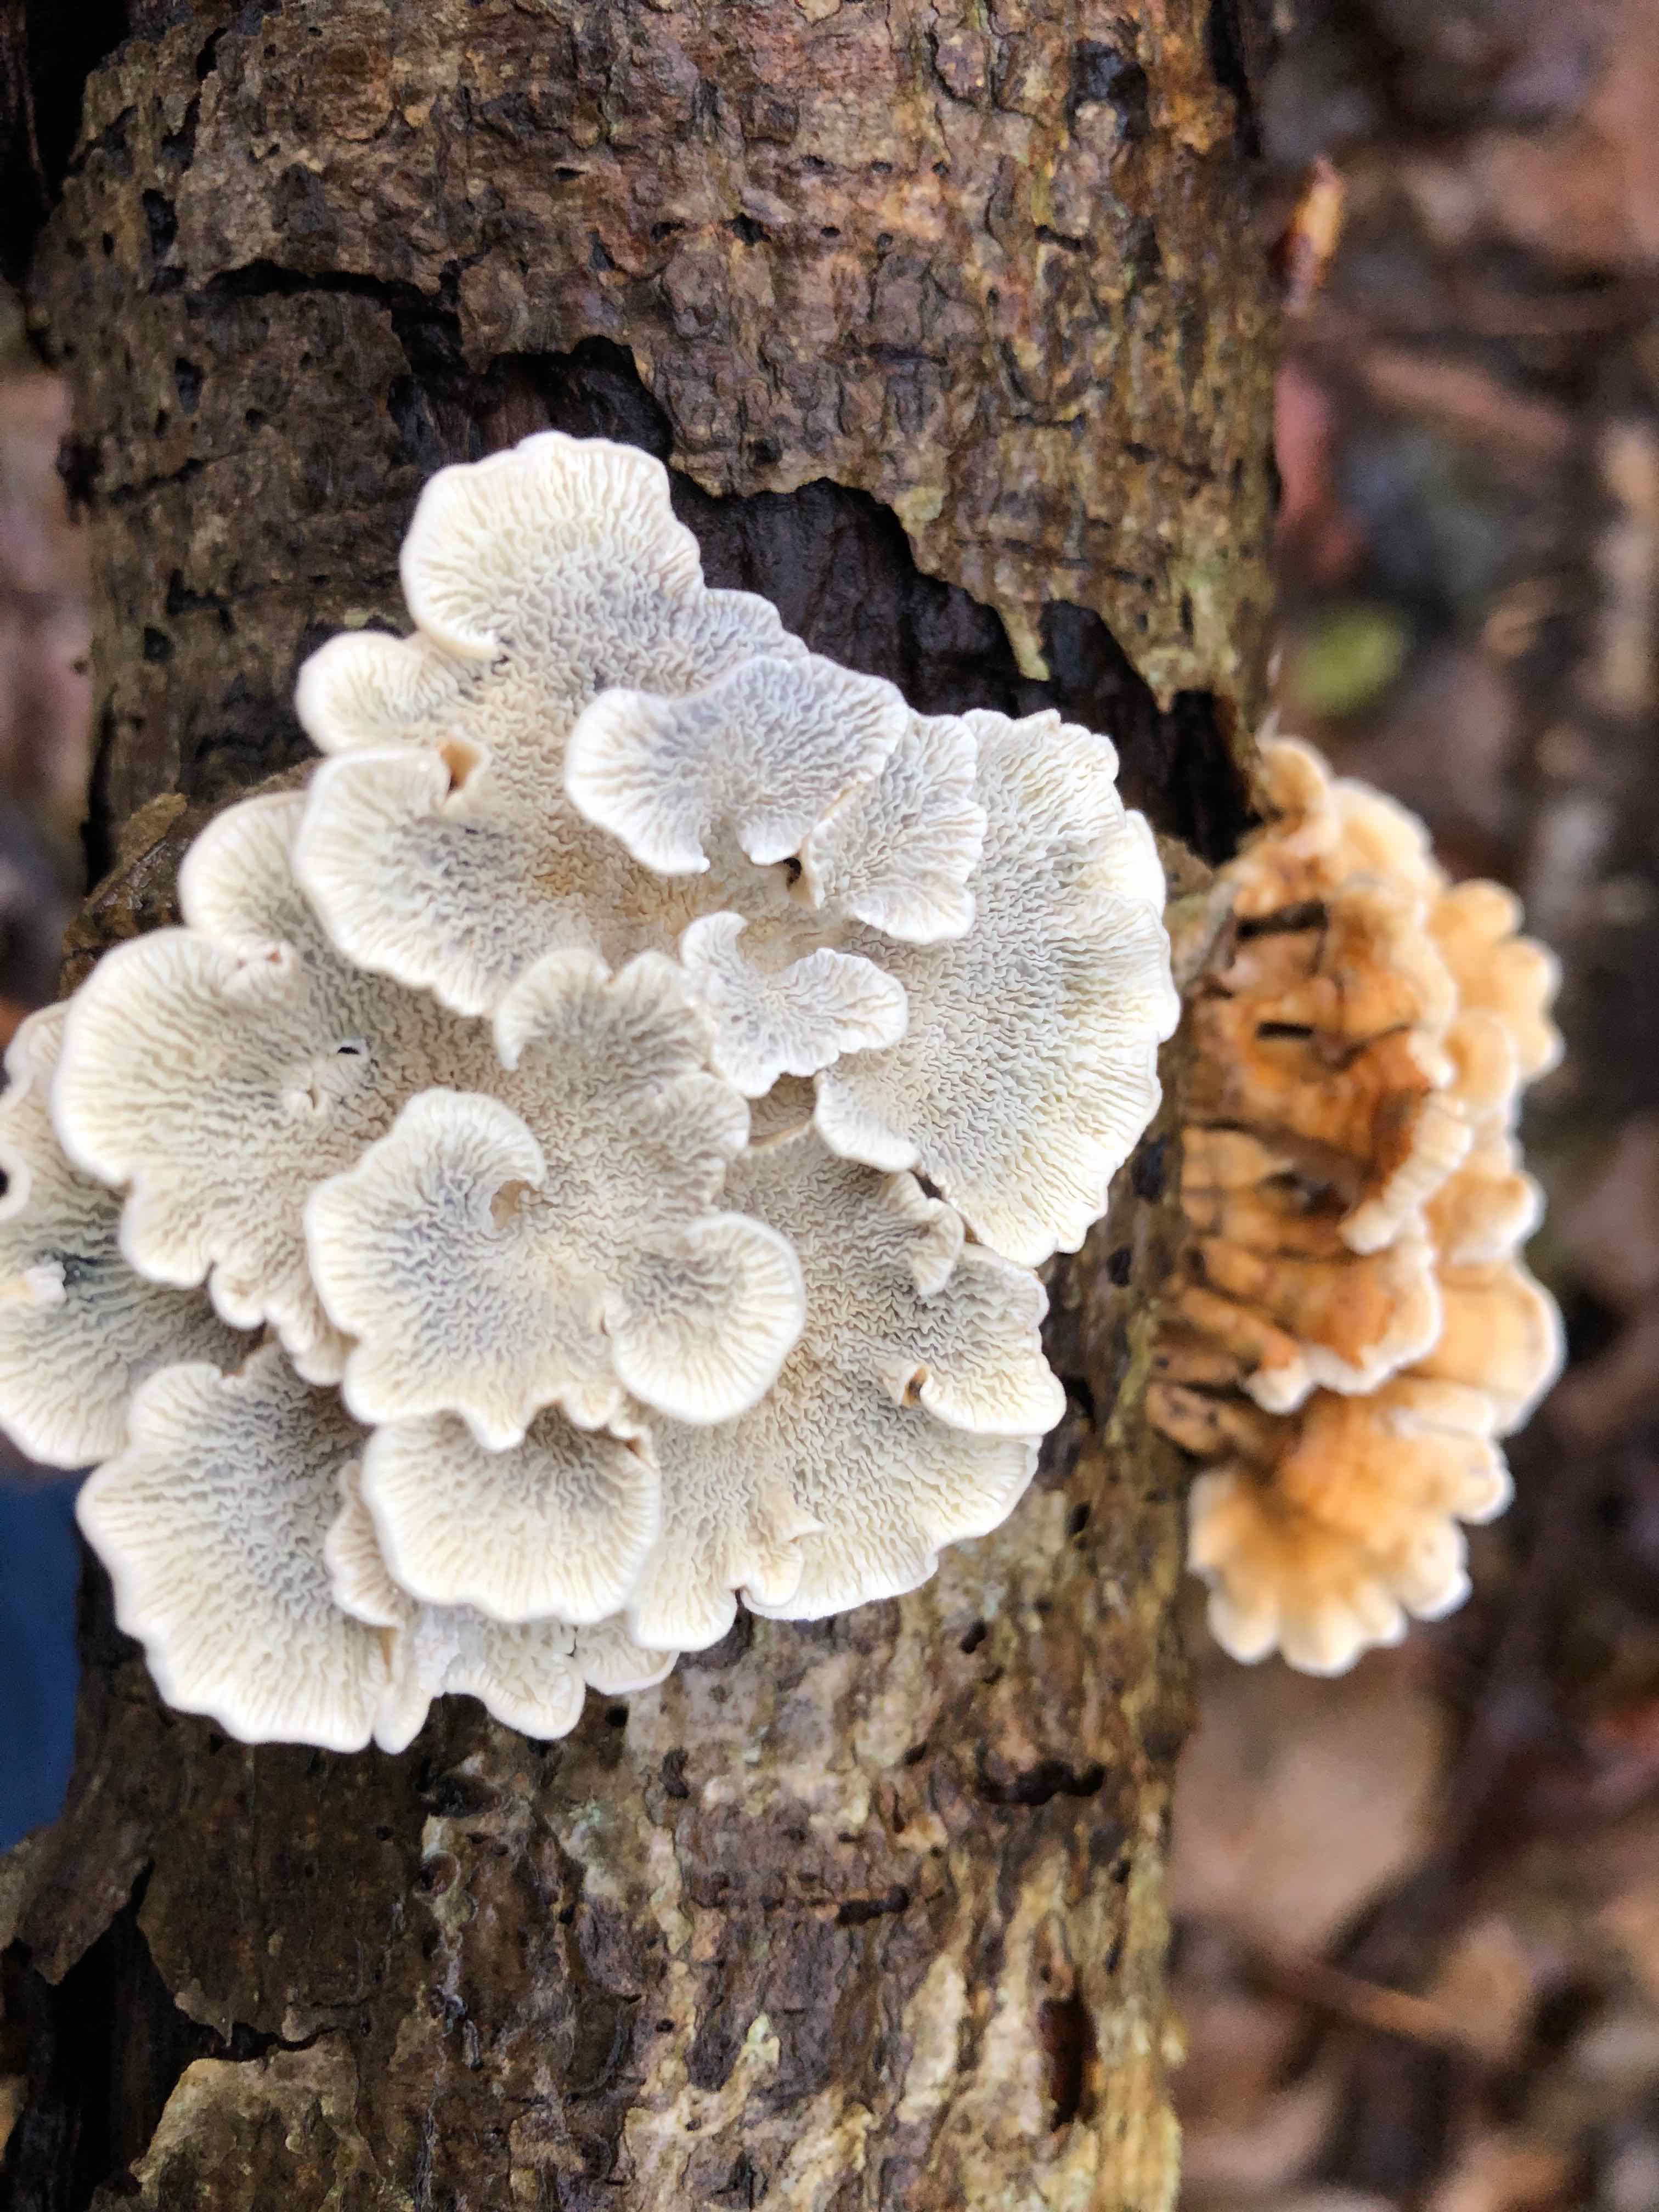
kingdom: Fungi
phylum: Basidiomycota
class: Agaricomycetes
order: Amylocorticiales
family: Amylocorticiaceae
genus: Plicaturopsis
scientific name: Plicaturopsis crispa
